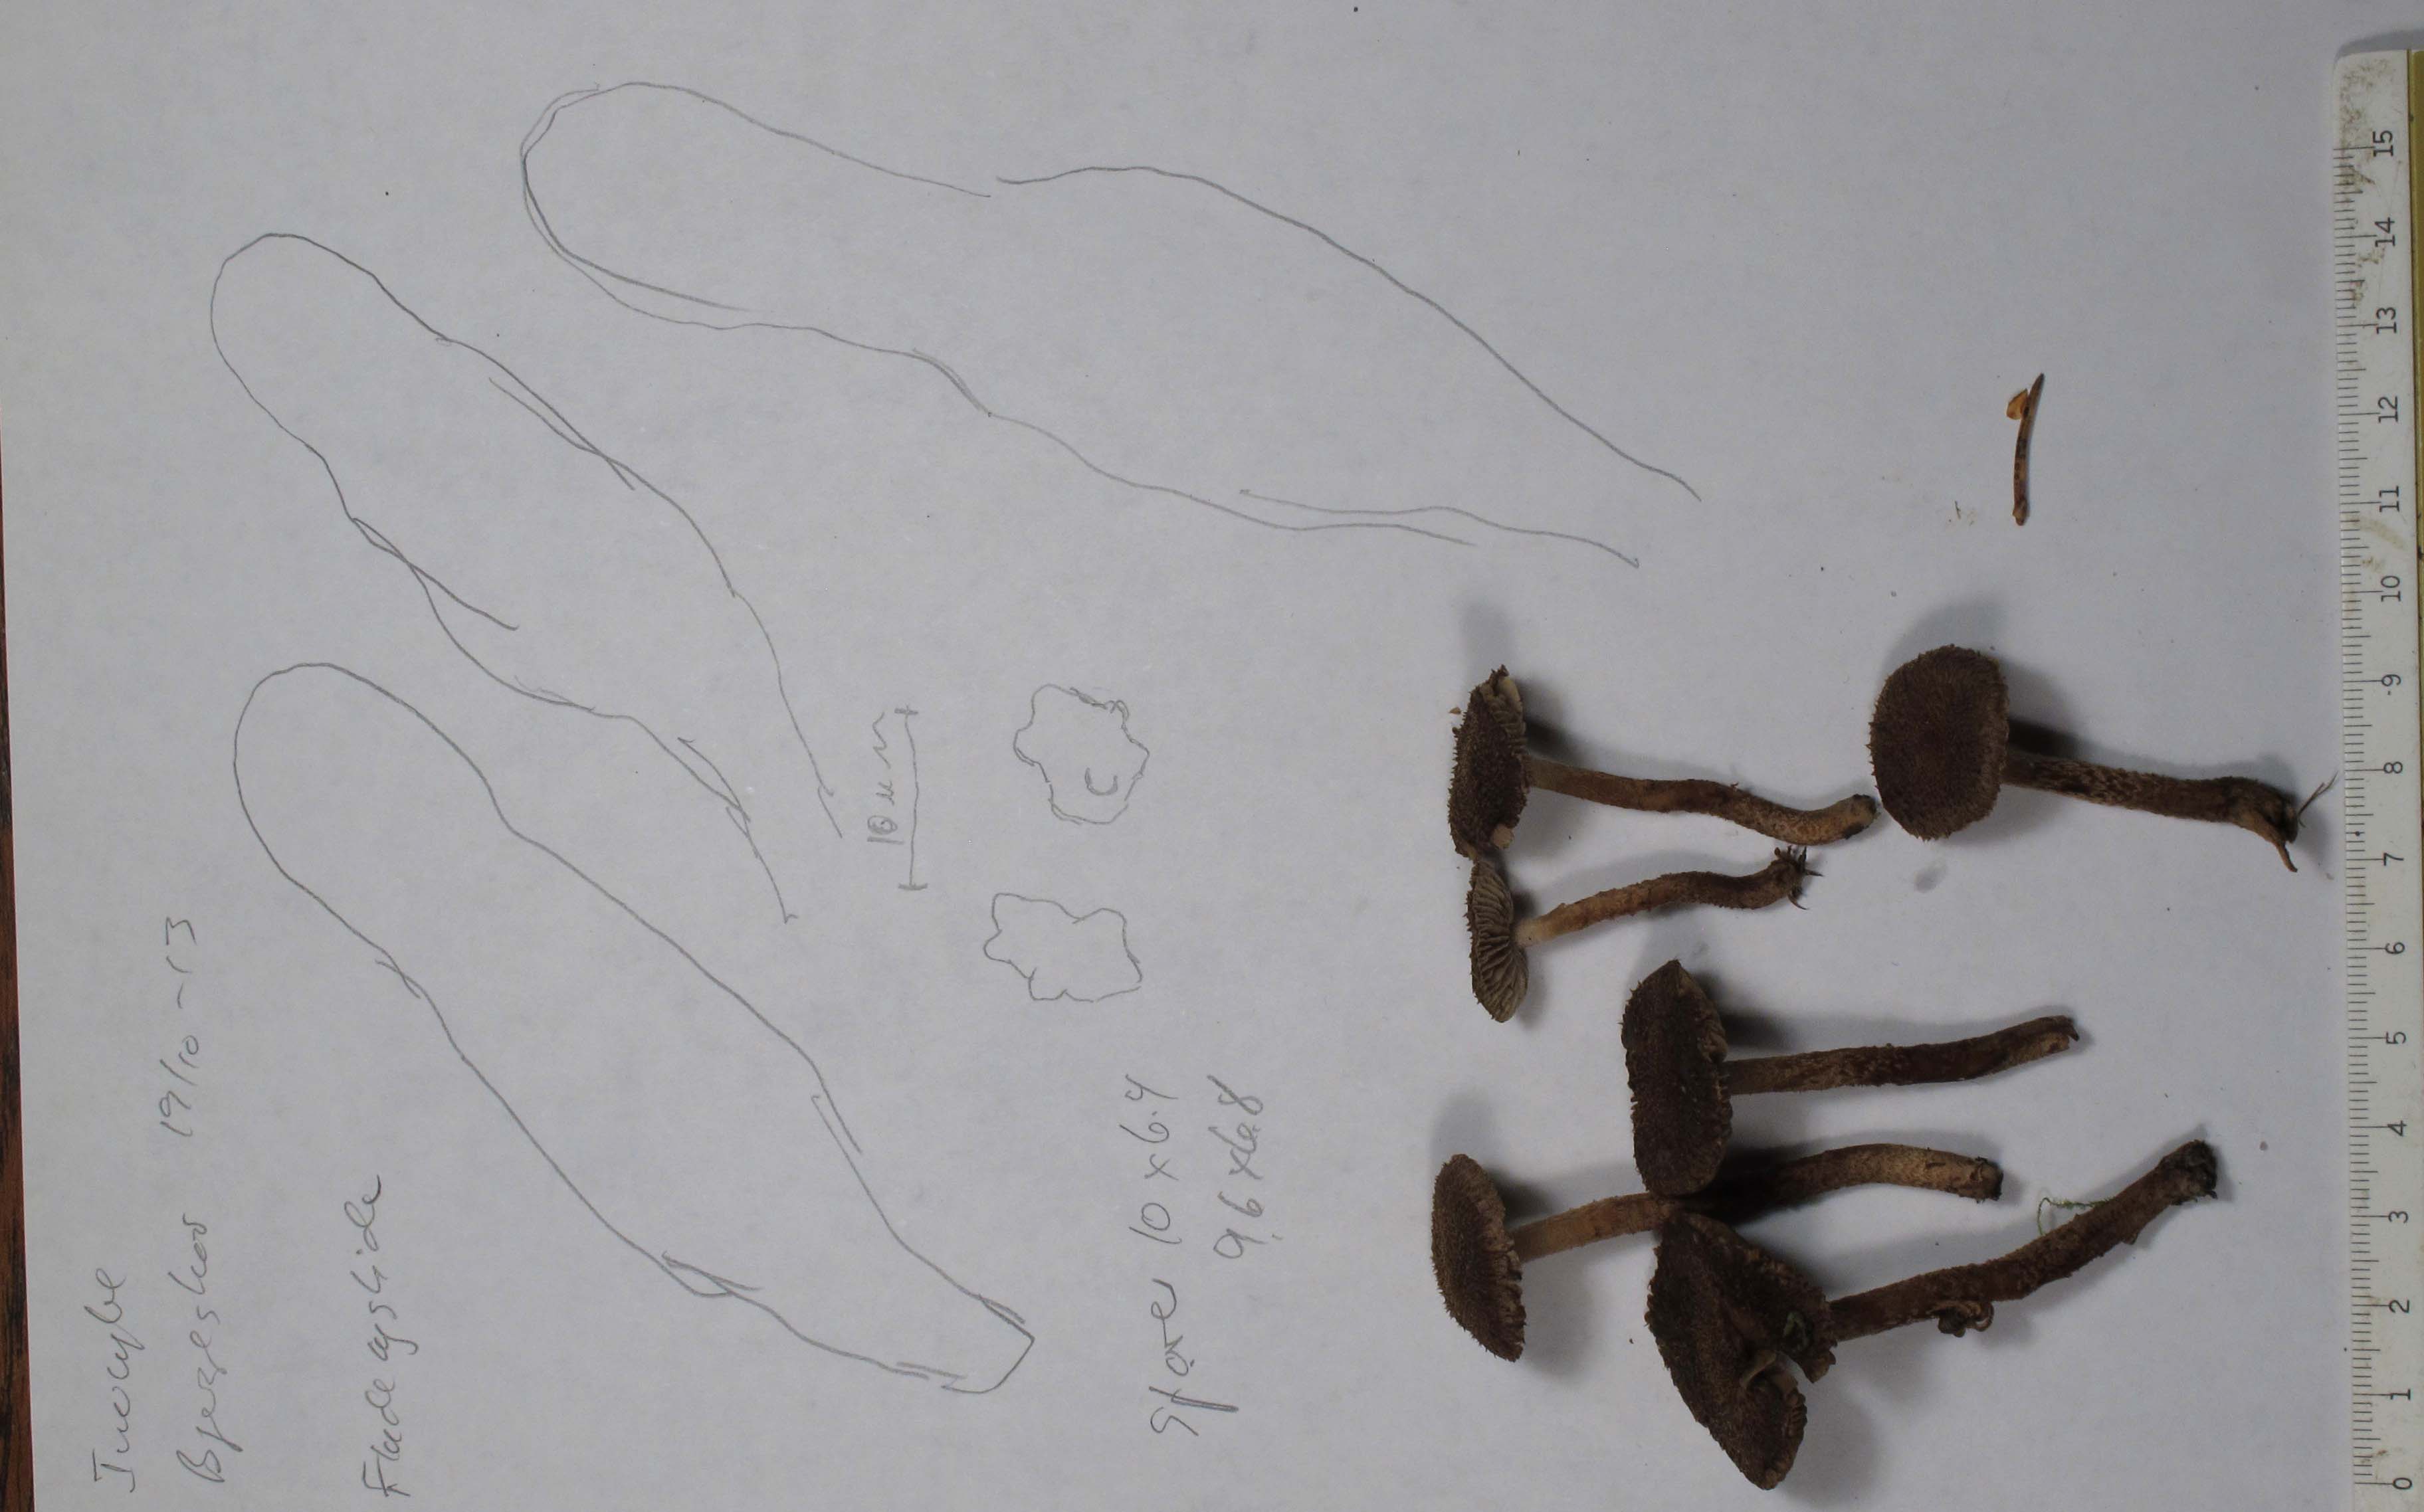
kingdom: Fungi
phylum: Basidiomycota
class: Agaricomycetes
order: Agaricales
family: Inocybaceae
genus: Inocybe
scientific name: Inocybe stellatospora
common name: spidsskællet trævlhat
